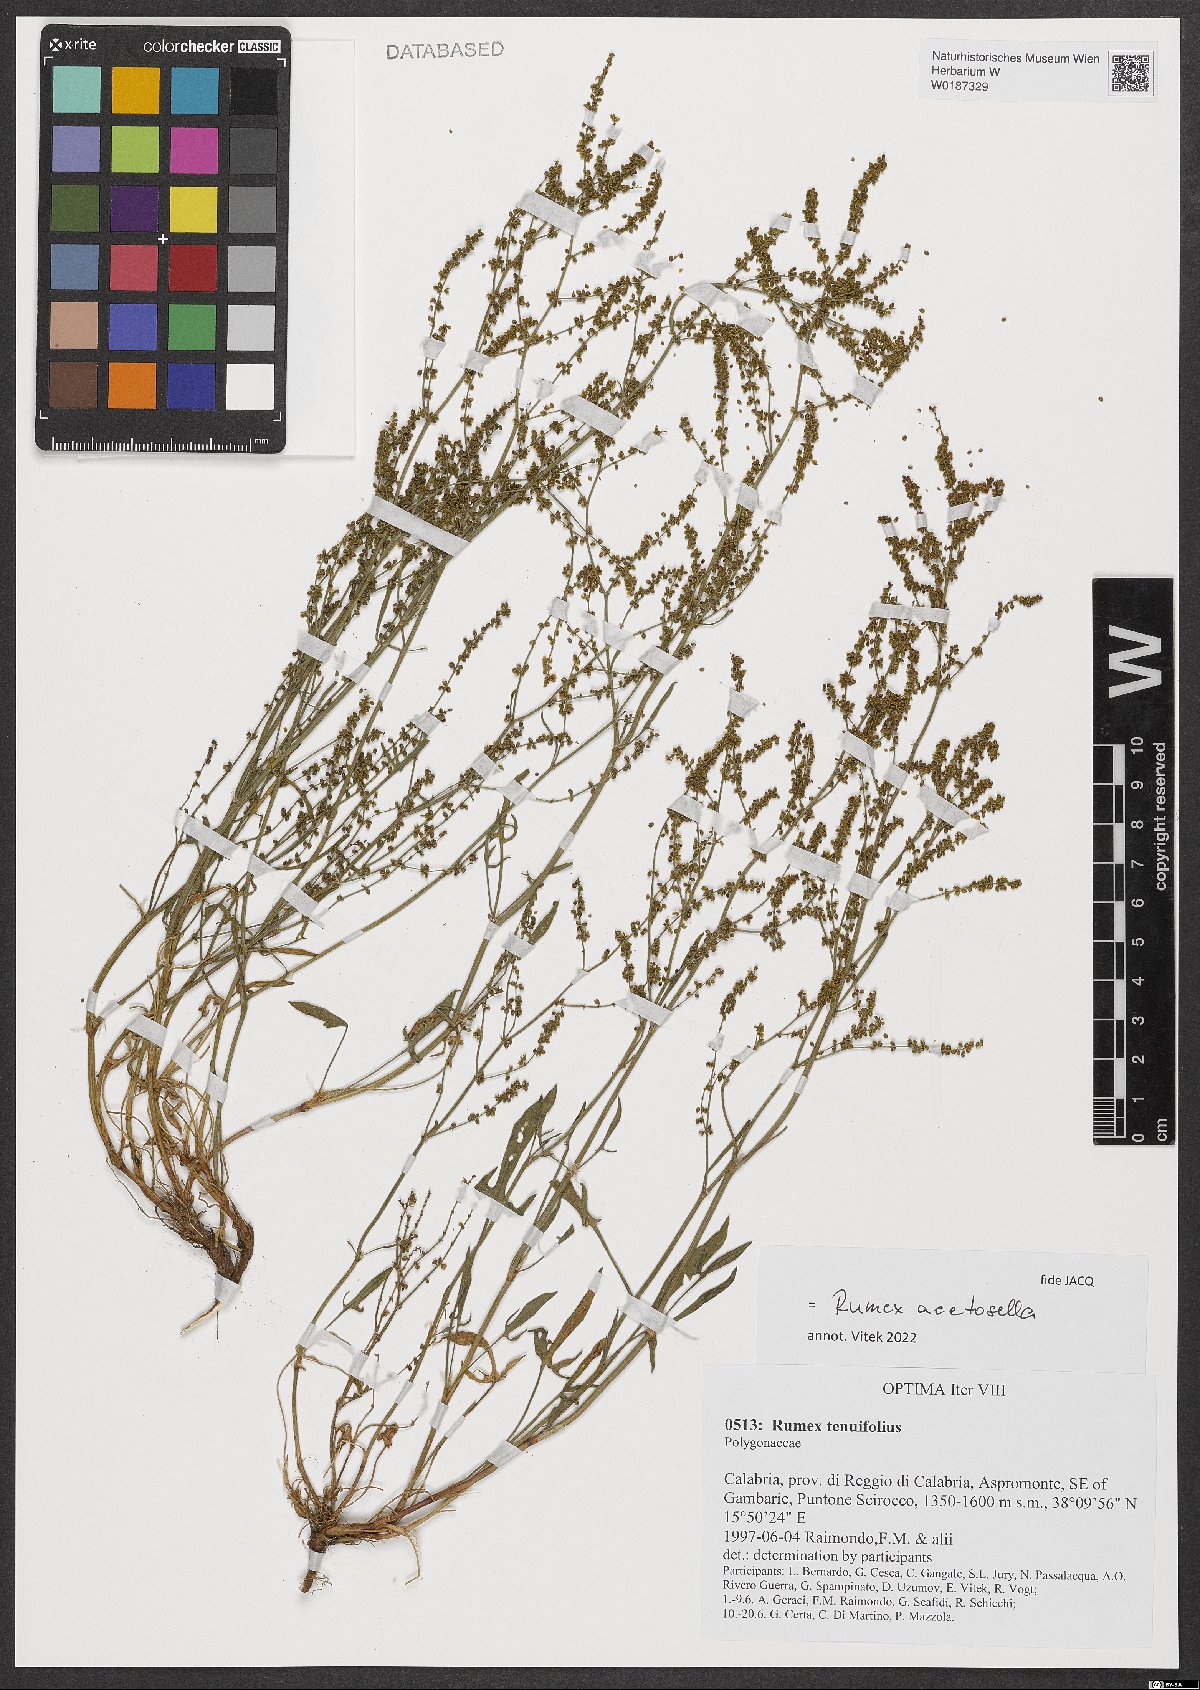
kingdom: Plantae
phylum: Tracheophyta
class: Magnoliopsida
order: Caryophyllales
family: Polygonaceae
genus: Rumex
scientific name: Rumex acetosella
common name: Common sheep sorrel
